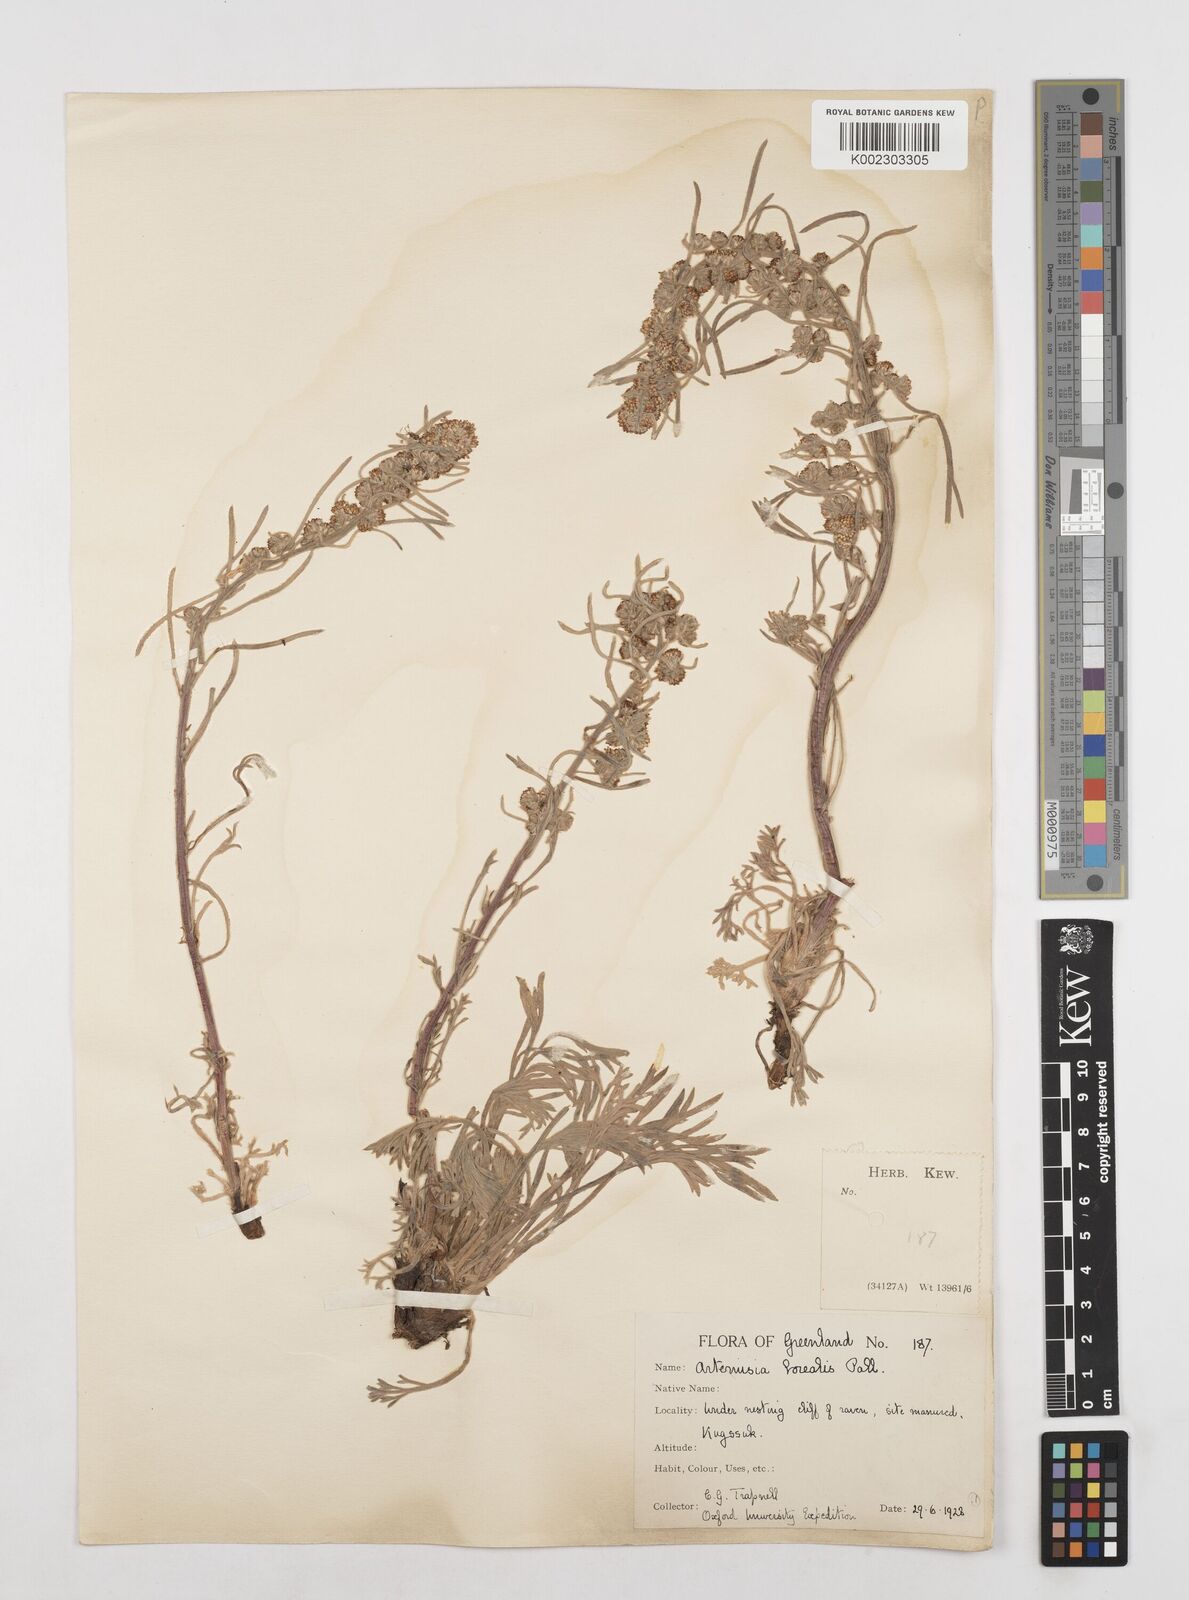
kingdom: Plantae
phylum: Tracheophyta
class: Magnoliopsida
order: Asterales
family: Asteraceae
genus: Artemisia
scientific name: Artemisia
